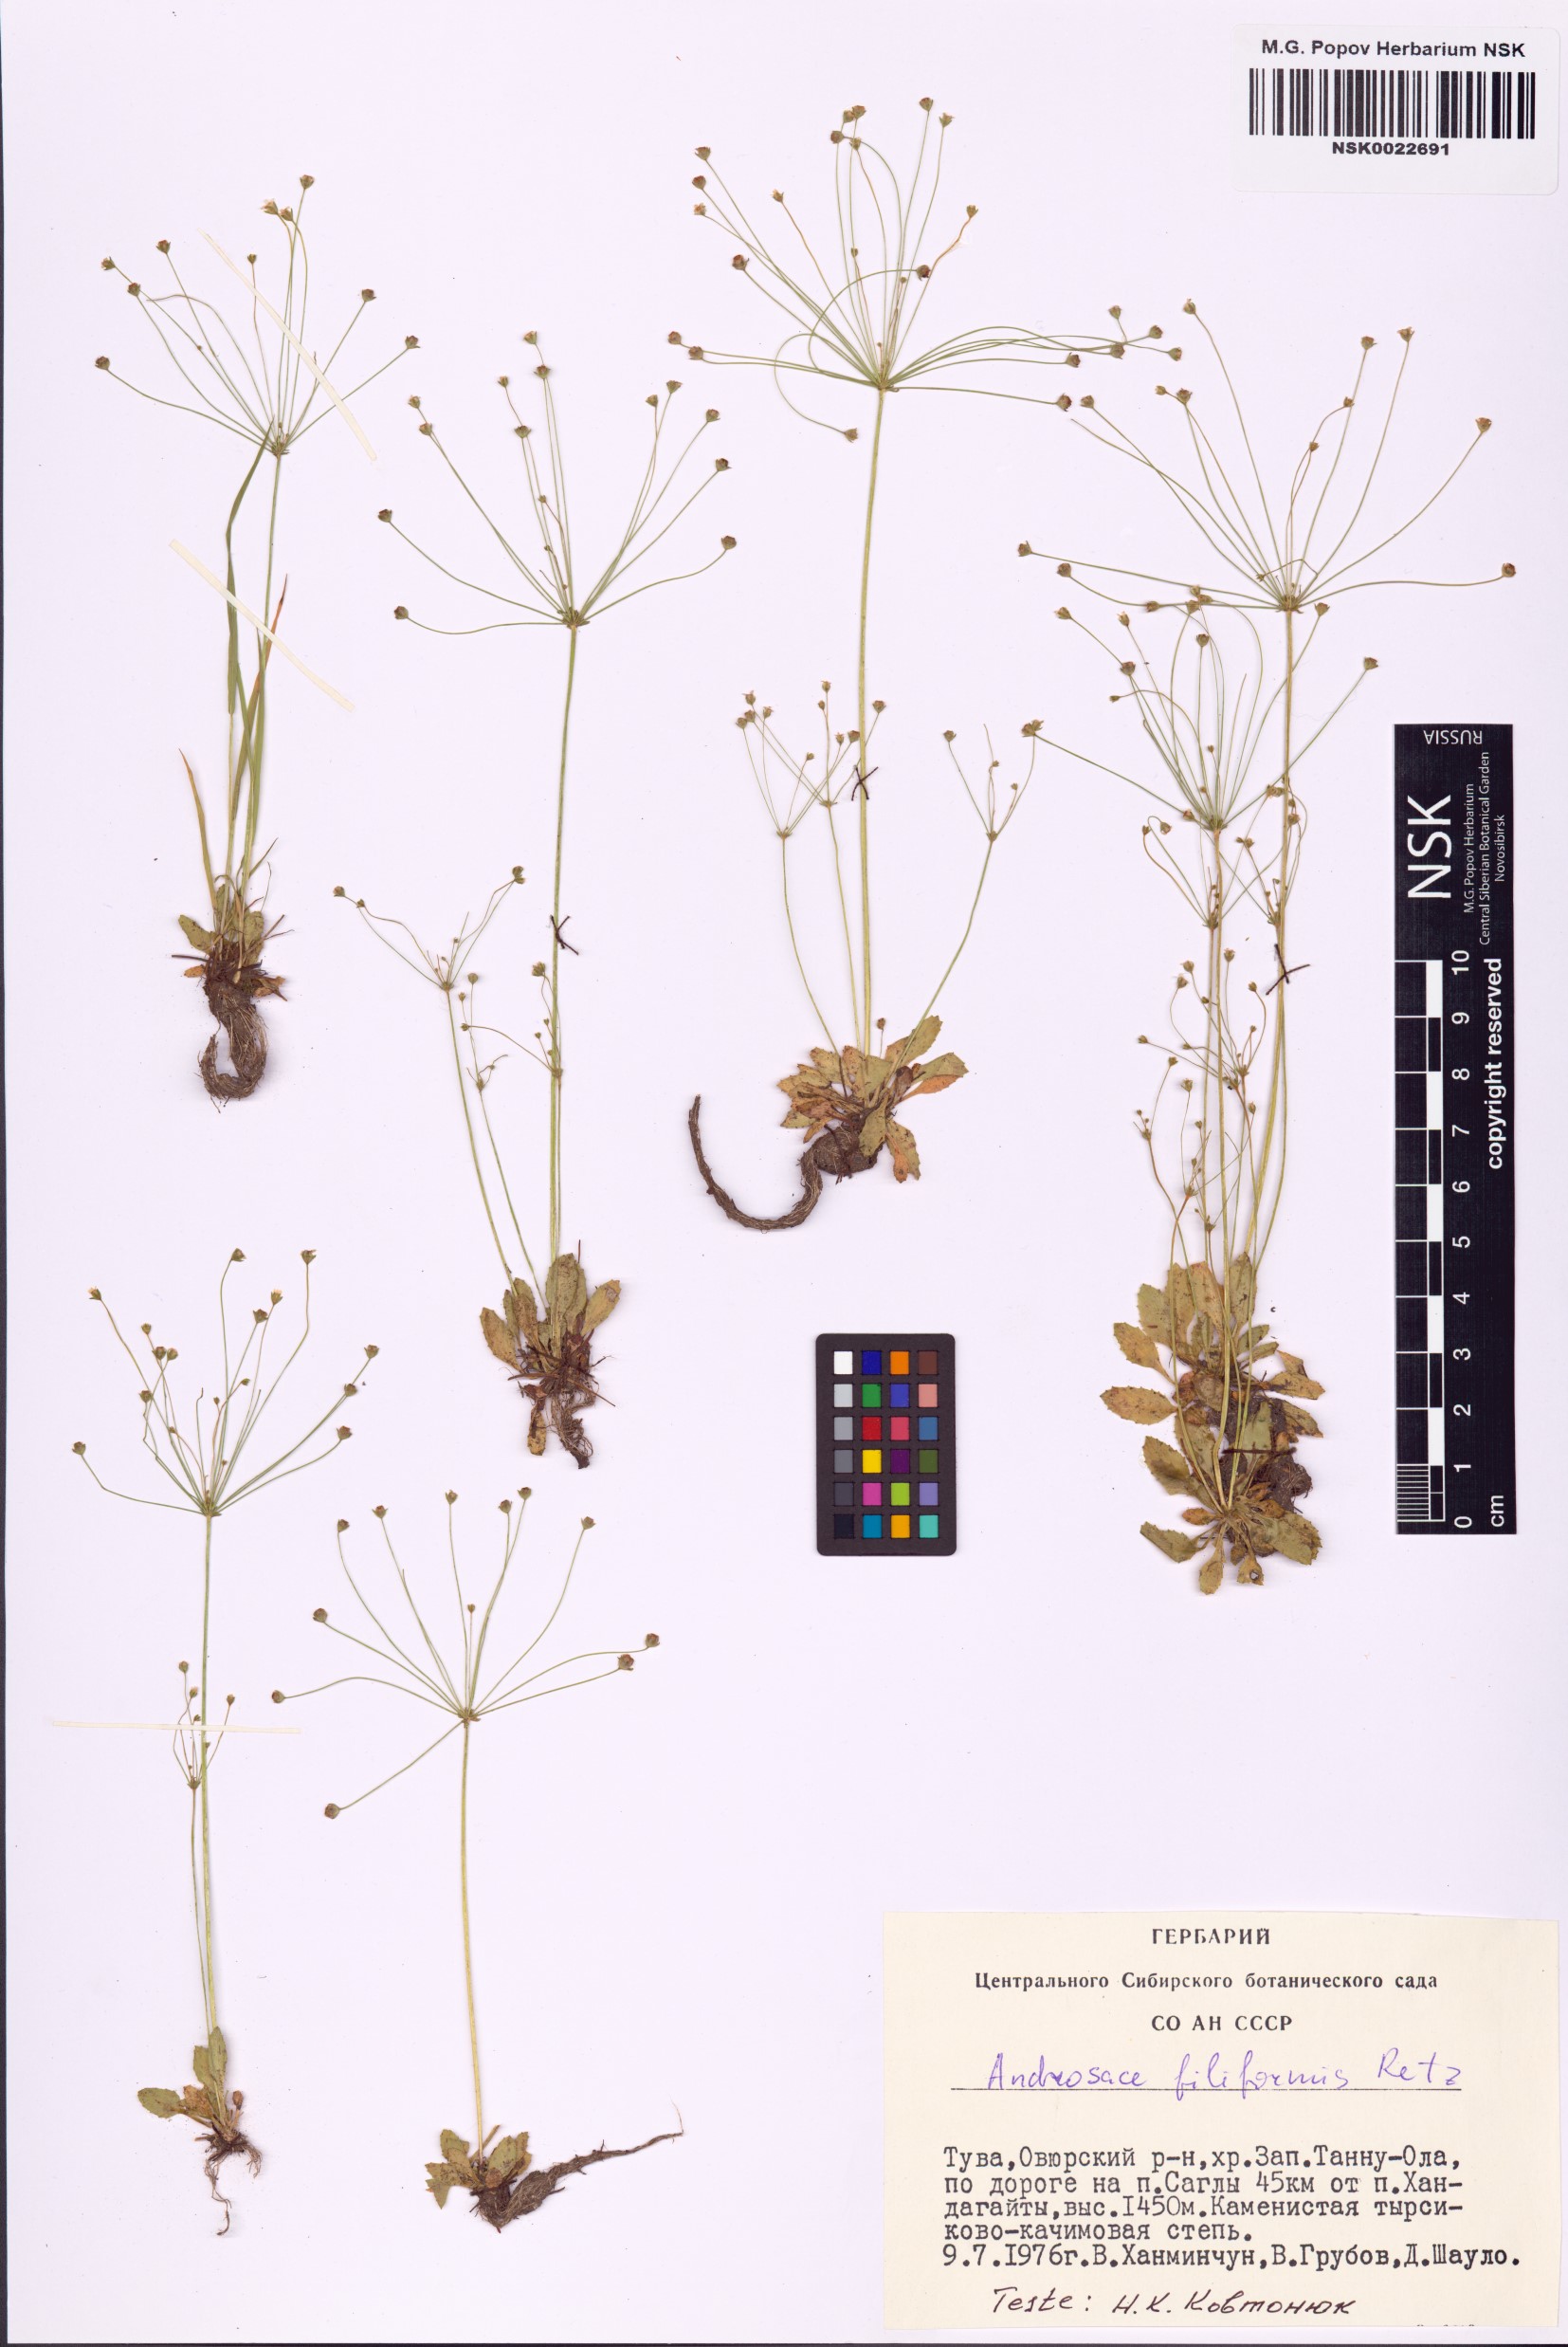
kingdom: Plantae
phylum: Tracheophyta
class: Magnoliopsida
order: Ericales
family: Primulaceae
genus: Androsace
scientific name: Androsace filiformis
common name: Filiform rock jasmine
